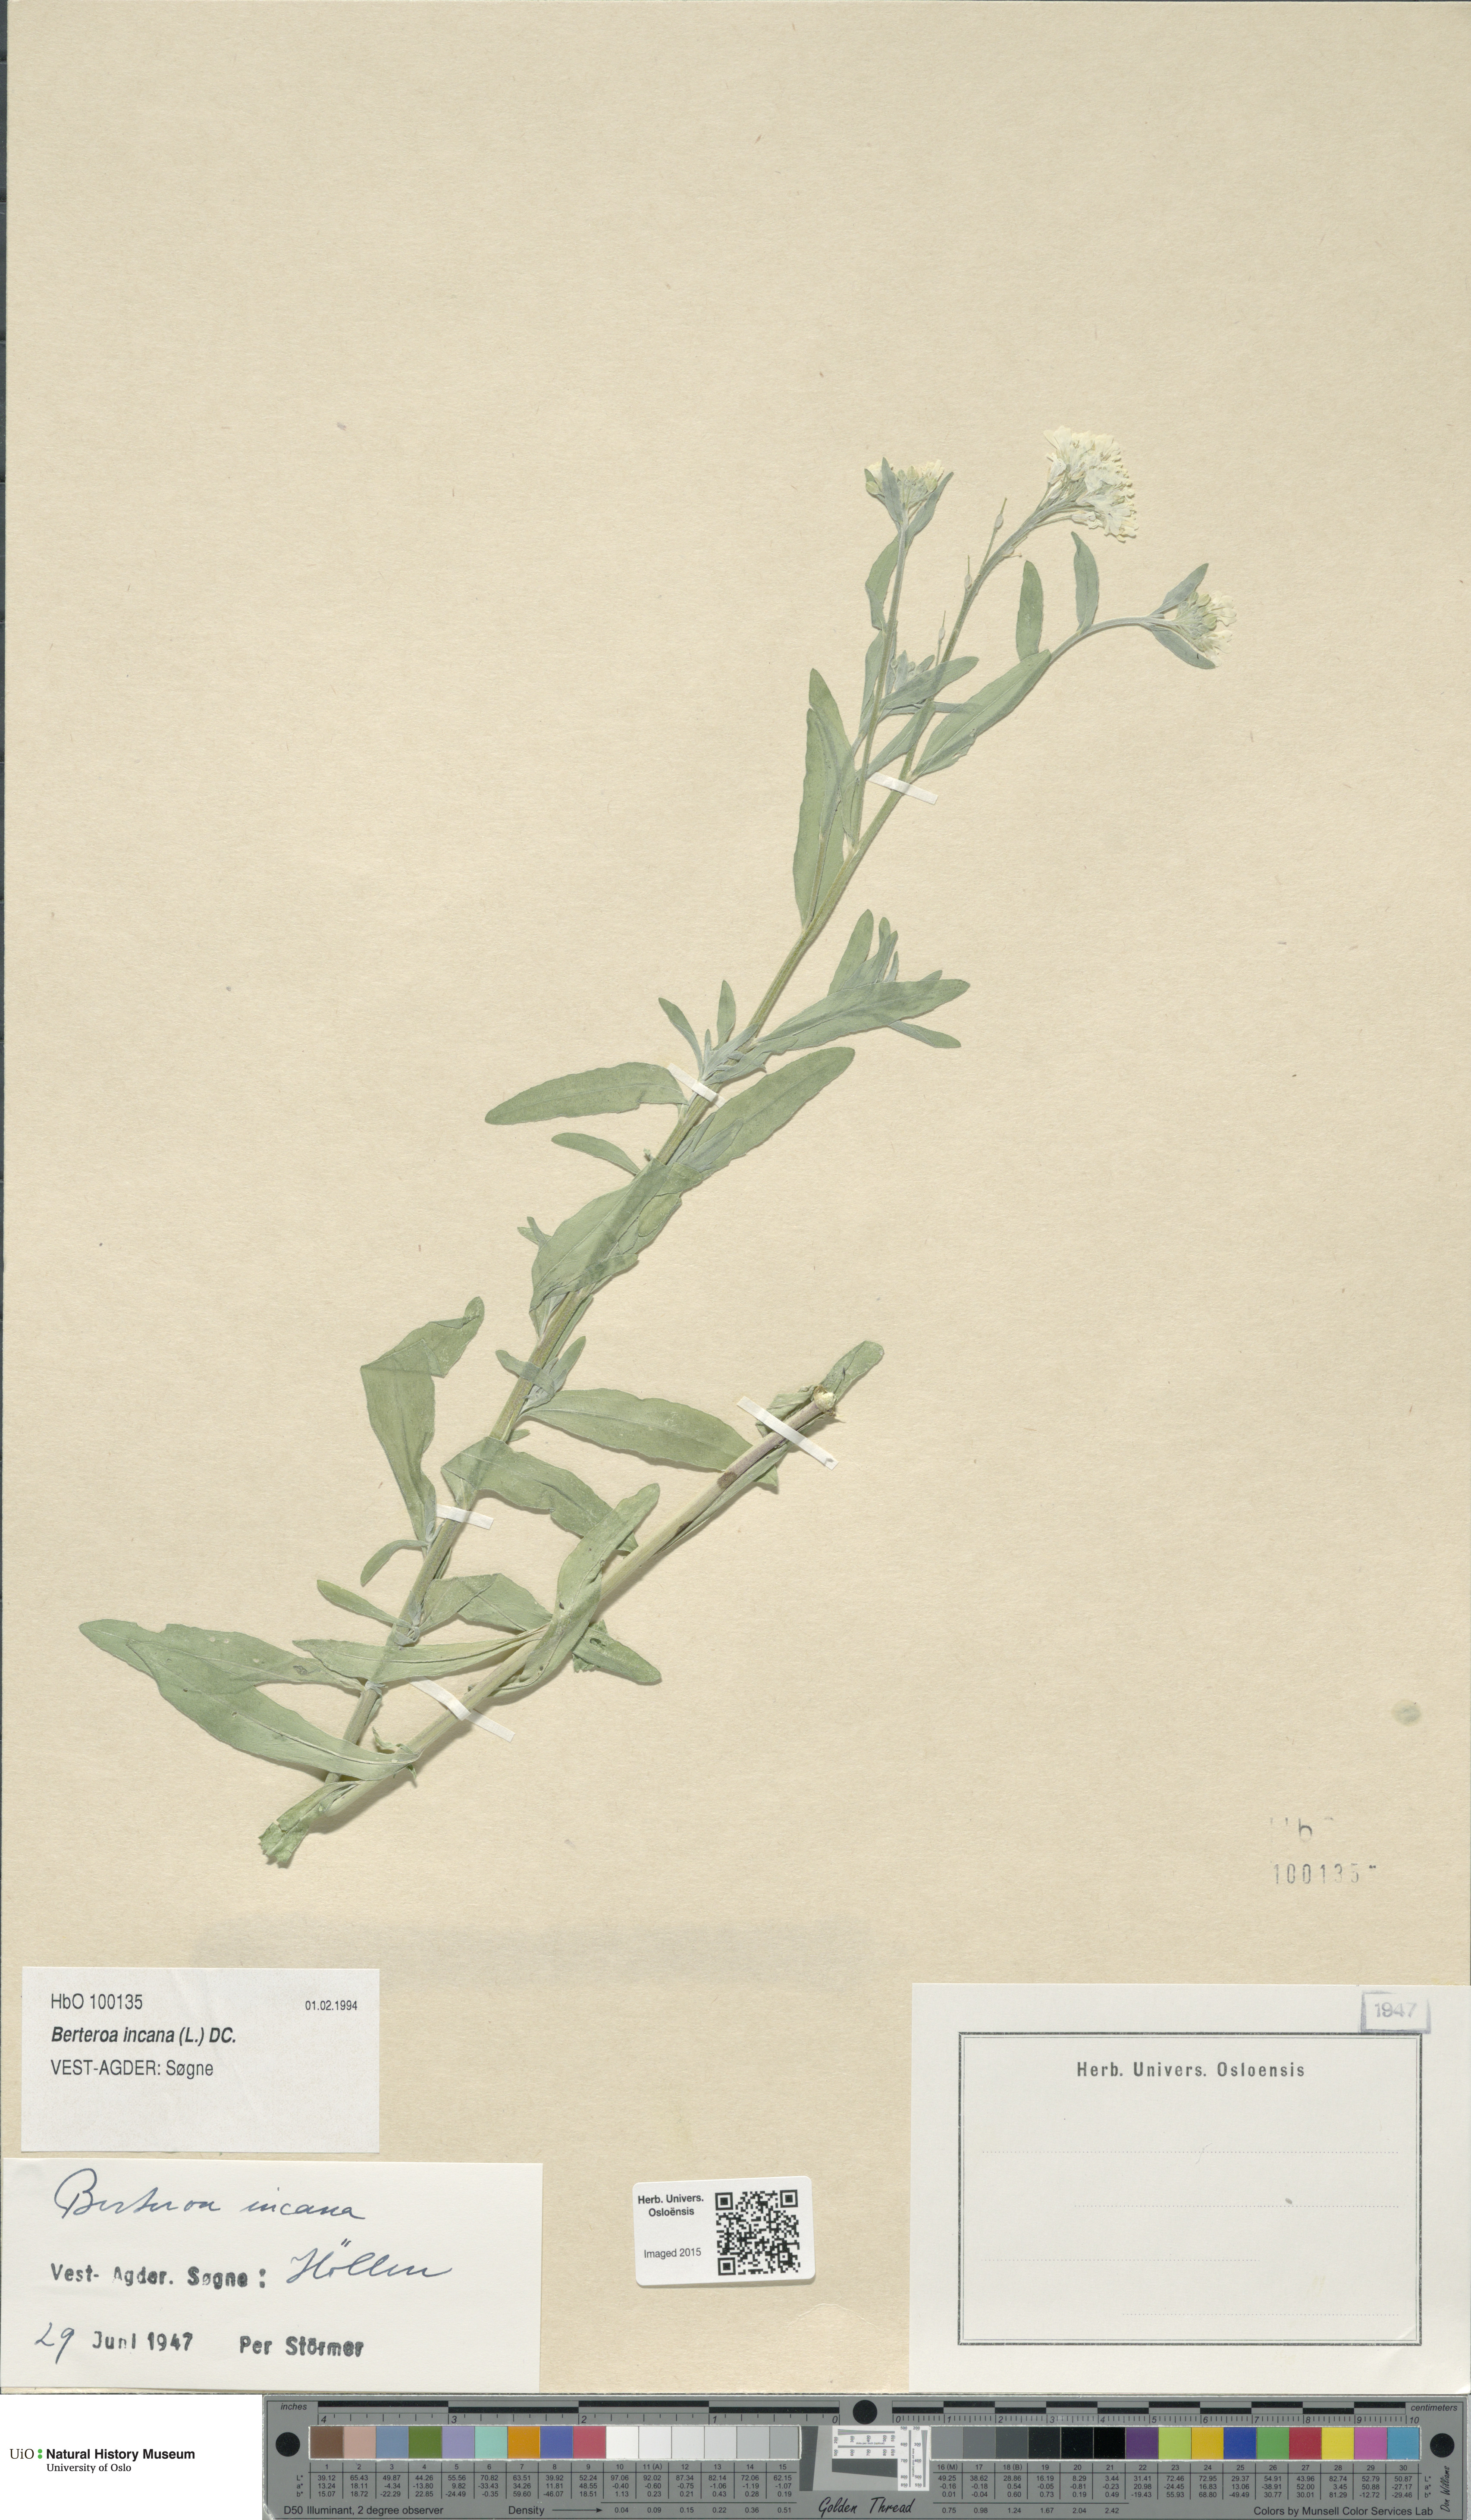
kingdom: Plantae
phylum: Tracheophyta
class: Magnoliopsida
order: Brassicales
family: Brassicaceae
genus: Berteroa
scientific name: Berteroa incana
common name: Hoary alison
